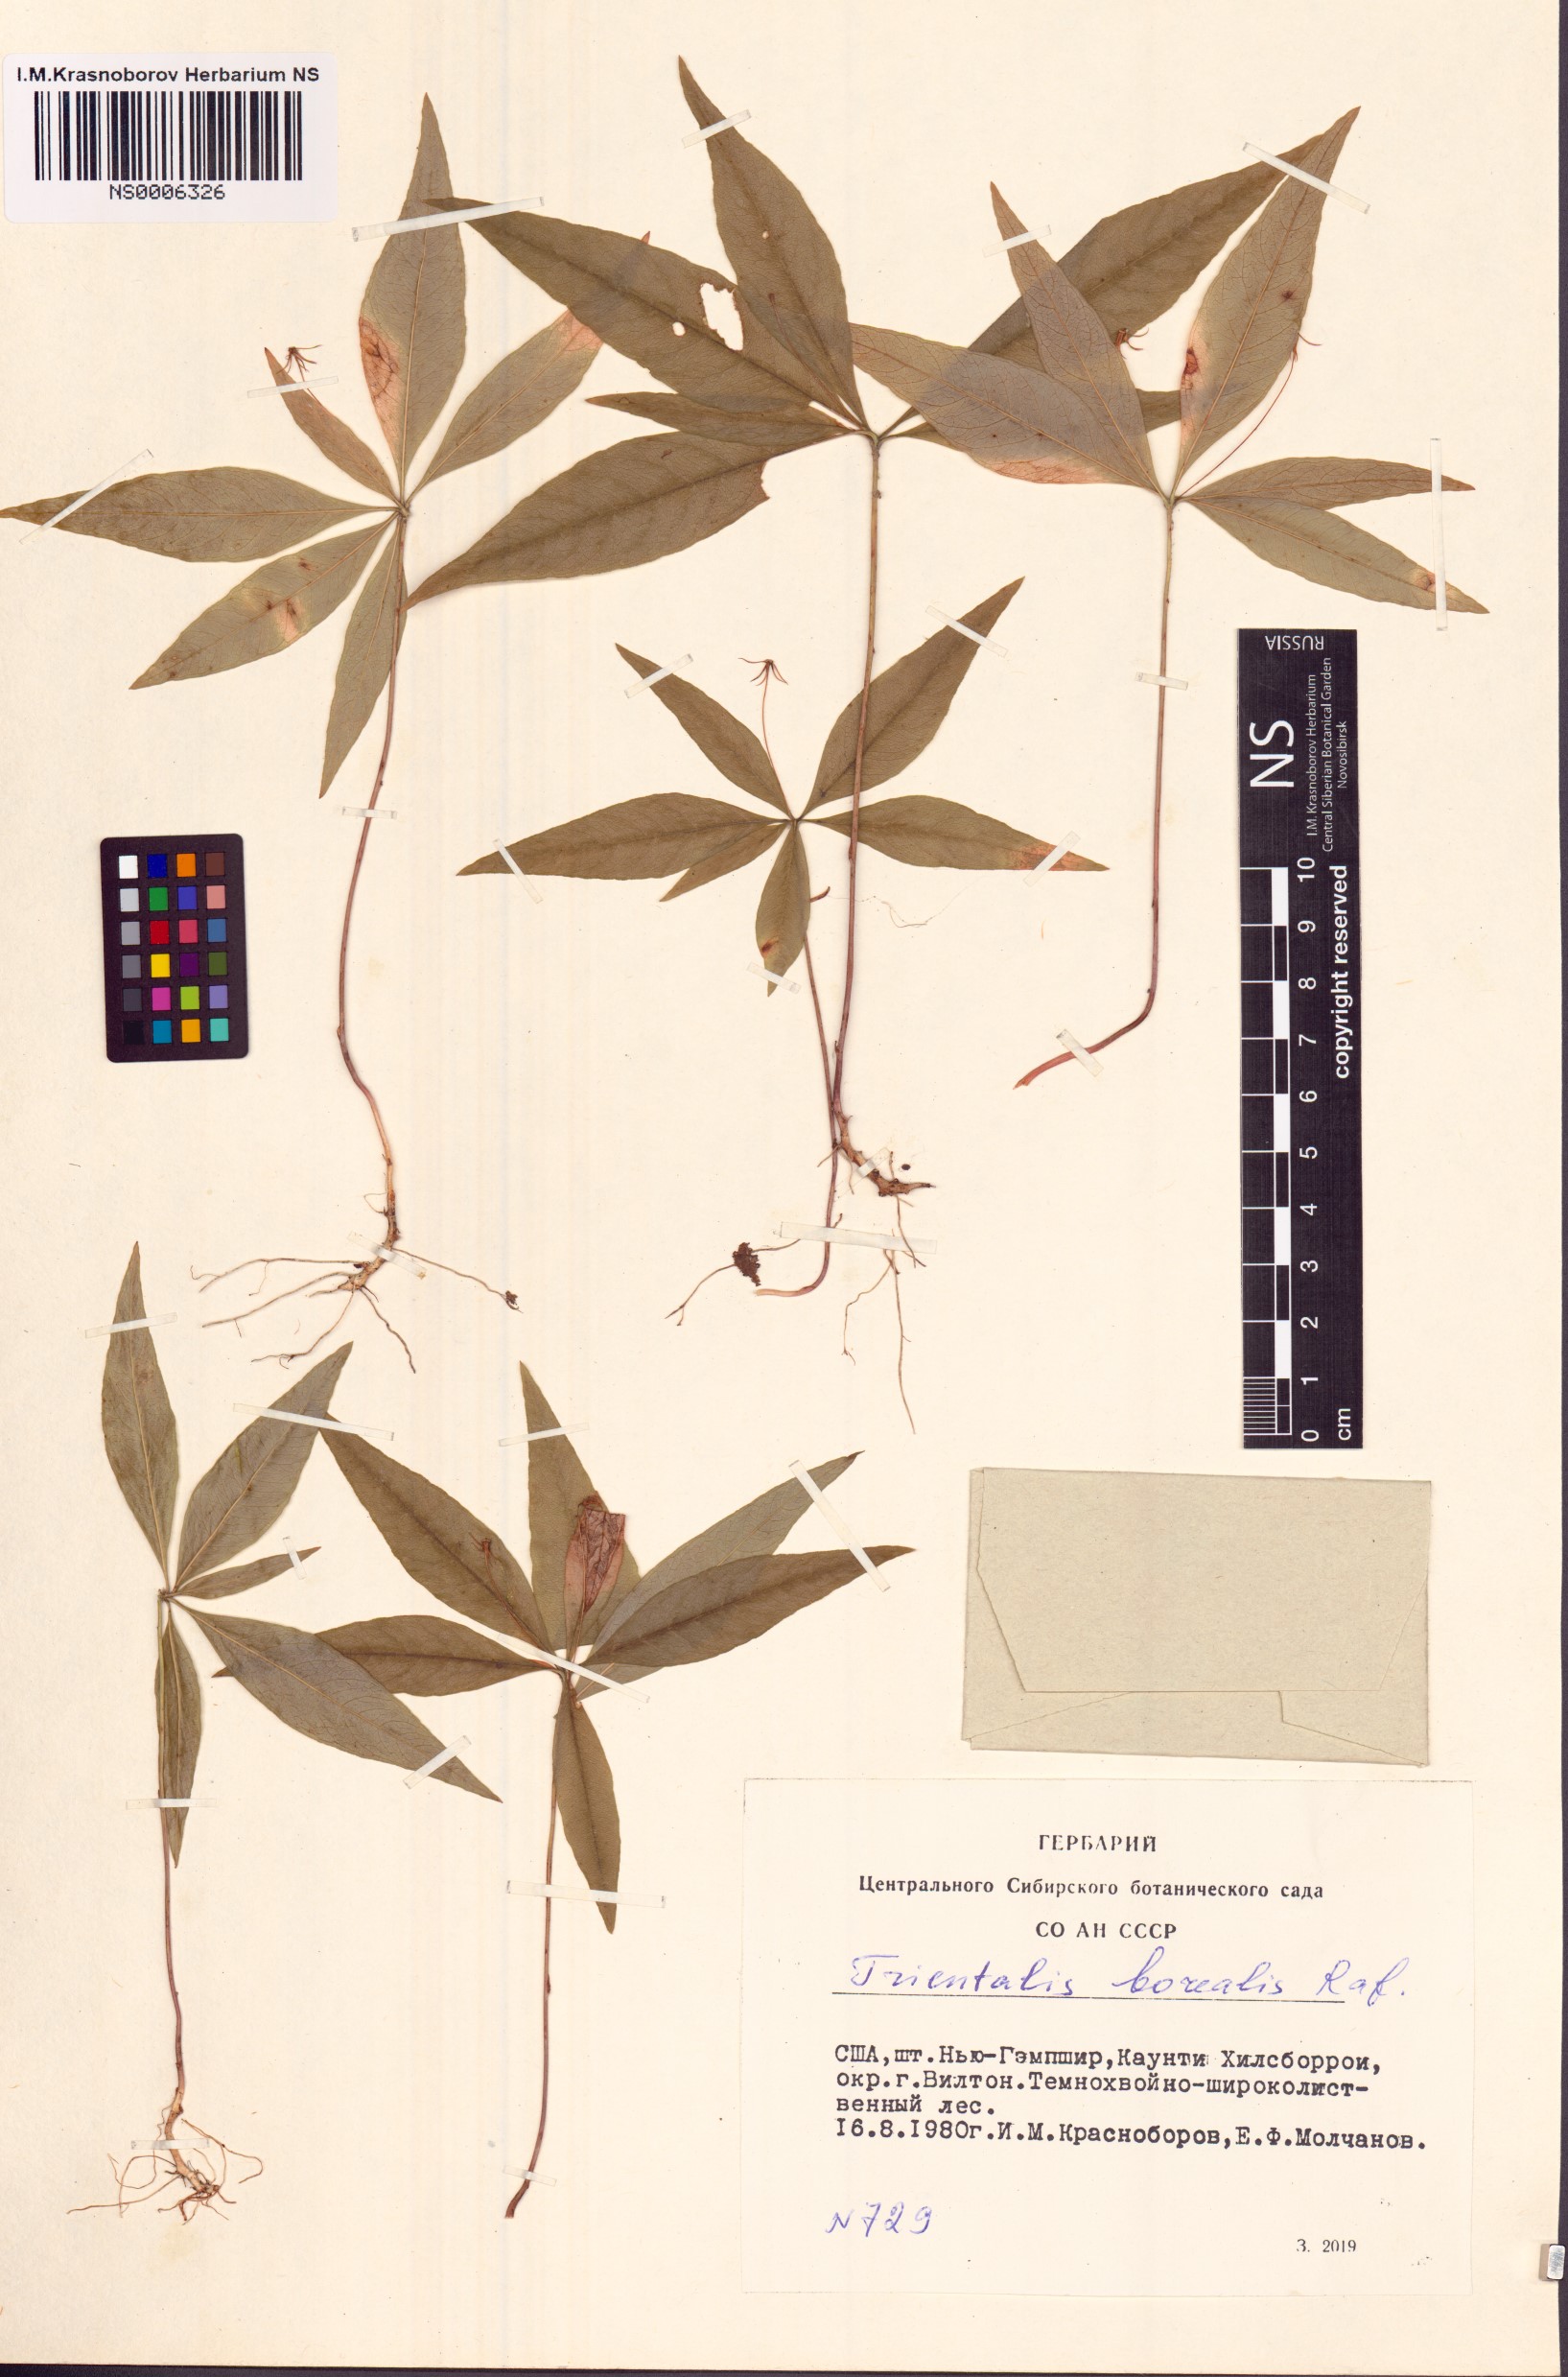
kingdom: Plantae
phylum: Tracheophyta
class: Magnoliopsida
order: Ericales
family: Primulaceae
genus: Lysimachia
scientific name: Lysimachia borealis
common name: American starflower
